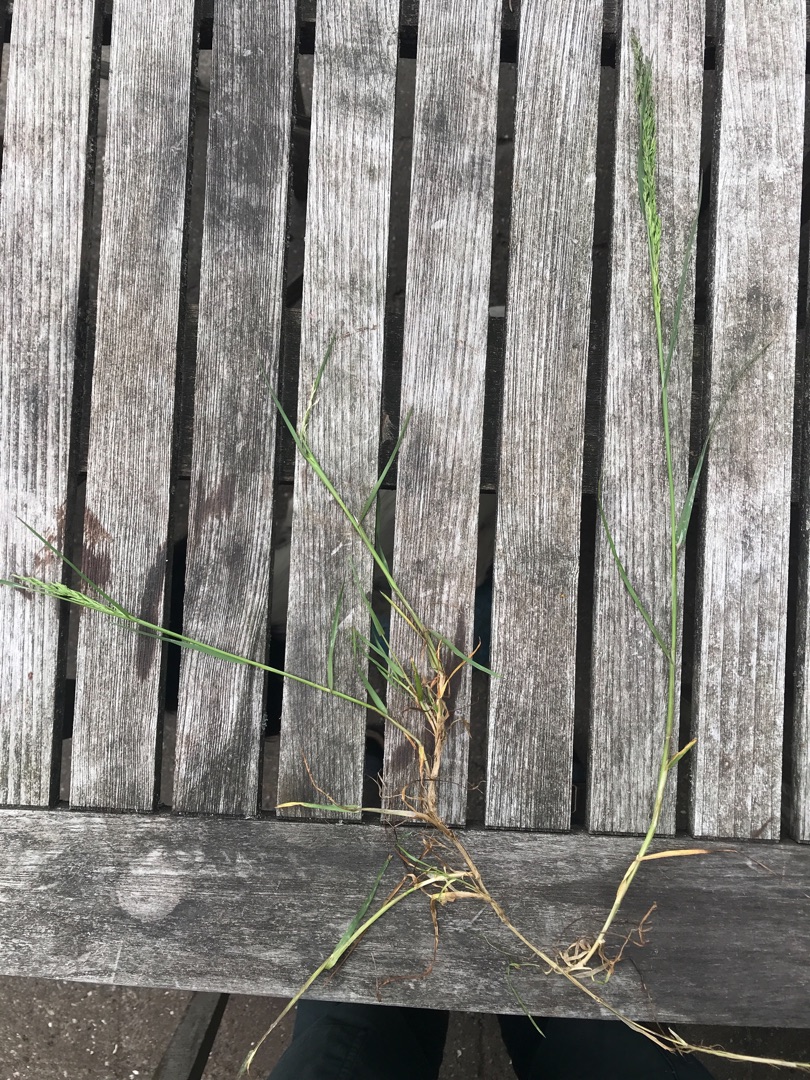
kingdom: Plantae
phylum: Tracheophyta
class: Liliopsida
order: Poales
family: Poaceae
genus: Poa
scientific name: Poa trivialis
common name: Almindelig rapgræs
